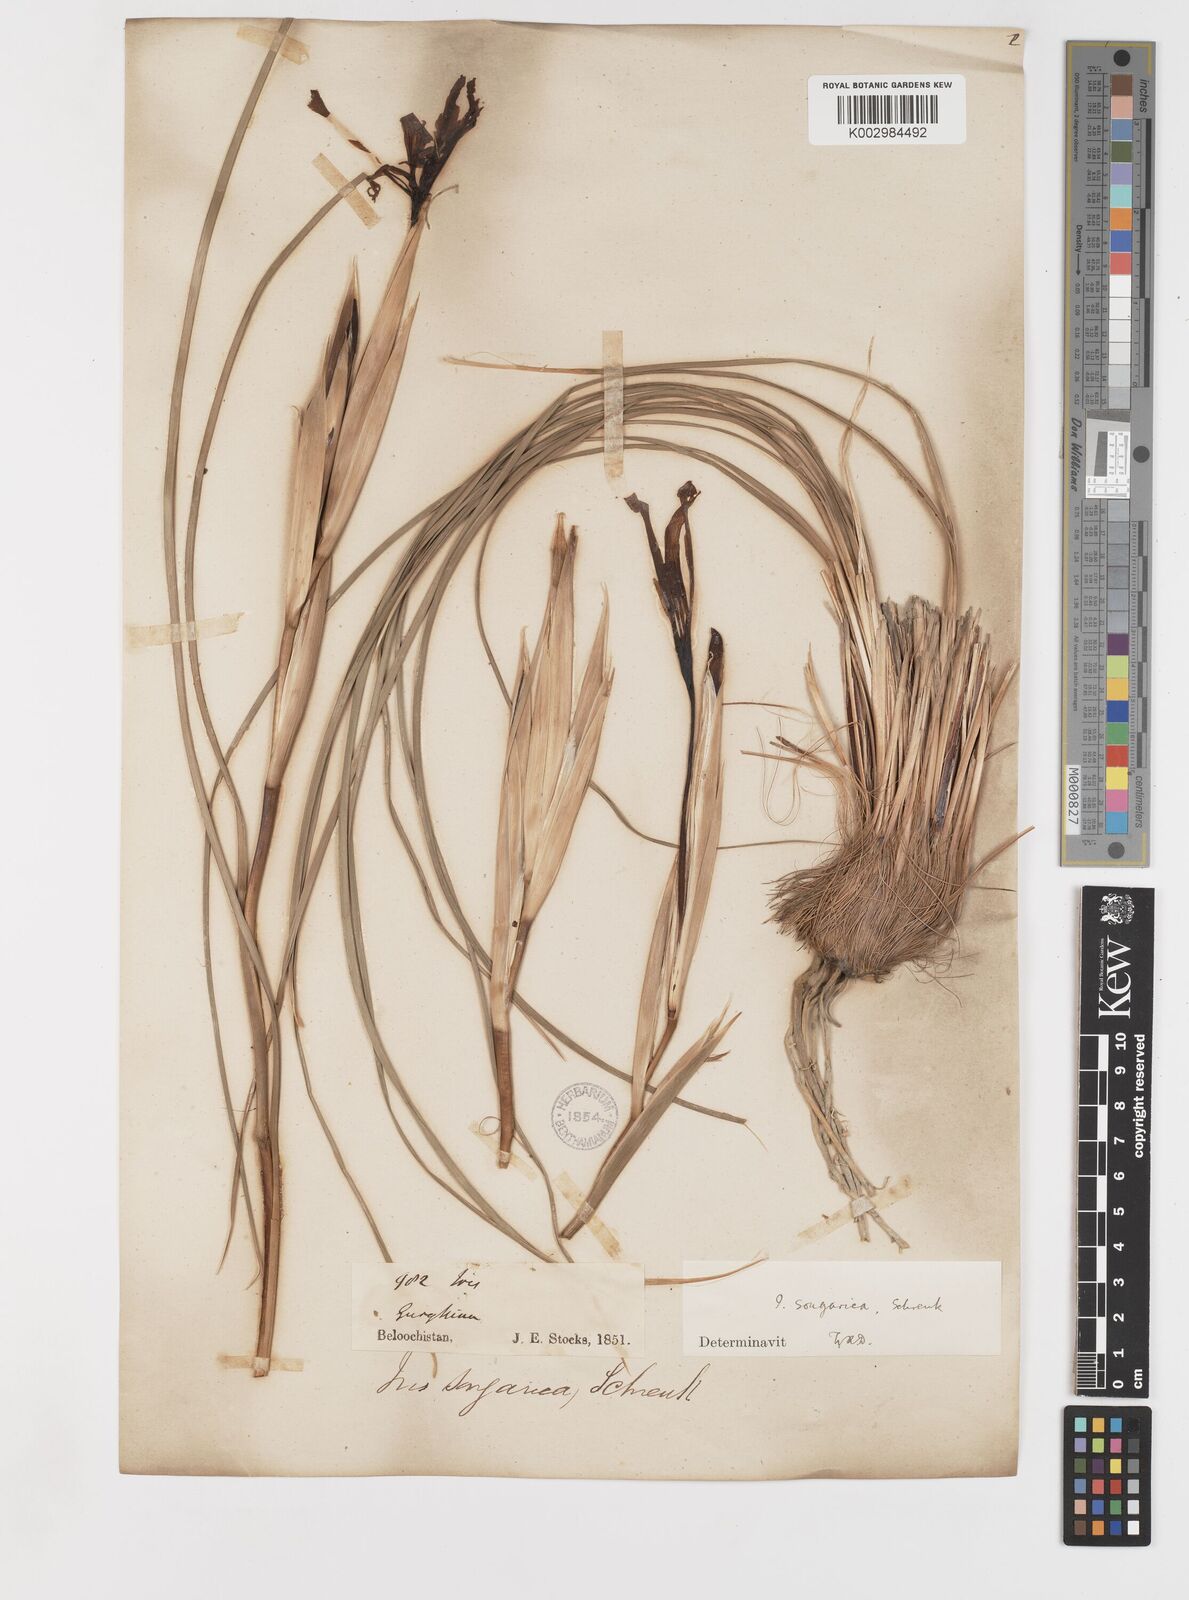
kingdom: Plantae
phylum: Tracheophyta
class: Liliopsida
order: Asparagales
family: Iridaceae
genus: Iris
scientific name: Iris songarica
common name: Songar iris
